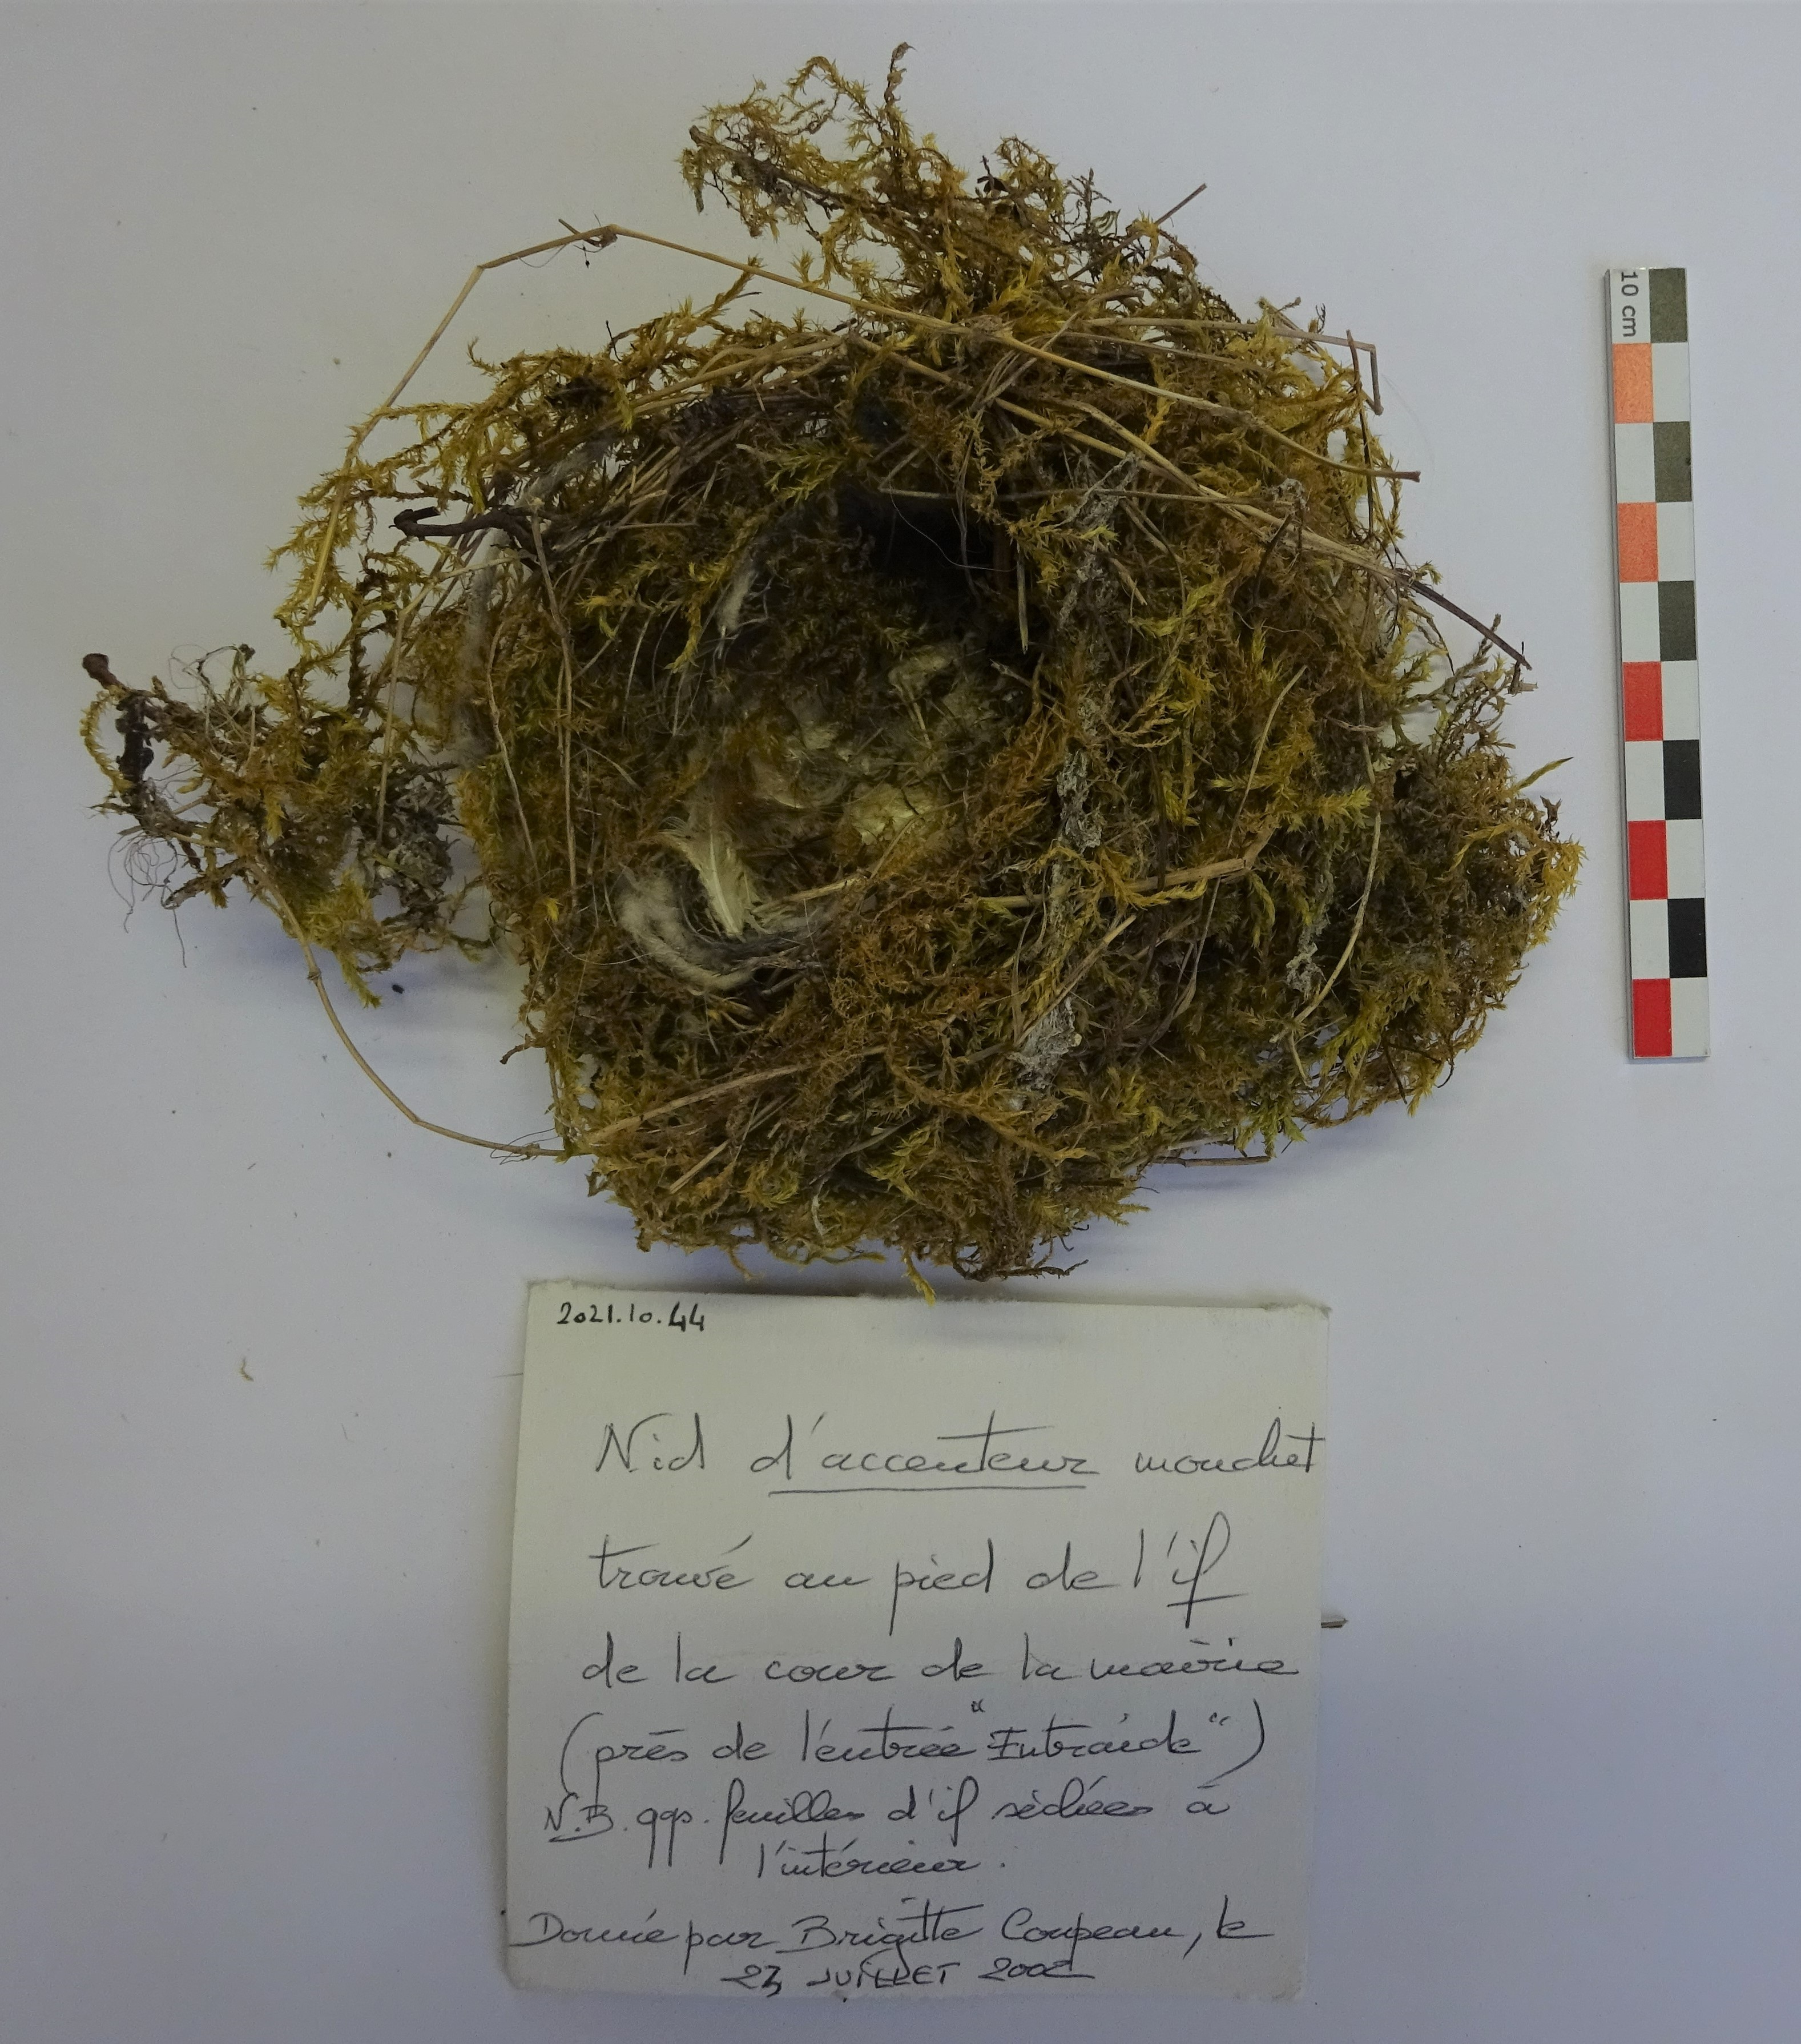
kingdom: Animalia
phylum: Chordata
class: Aves
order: Passeriformes
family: Prunellidae
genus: Prunella
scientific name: Prunella modularis
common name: Dunnock
